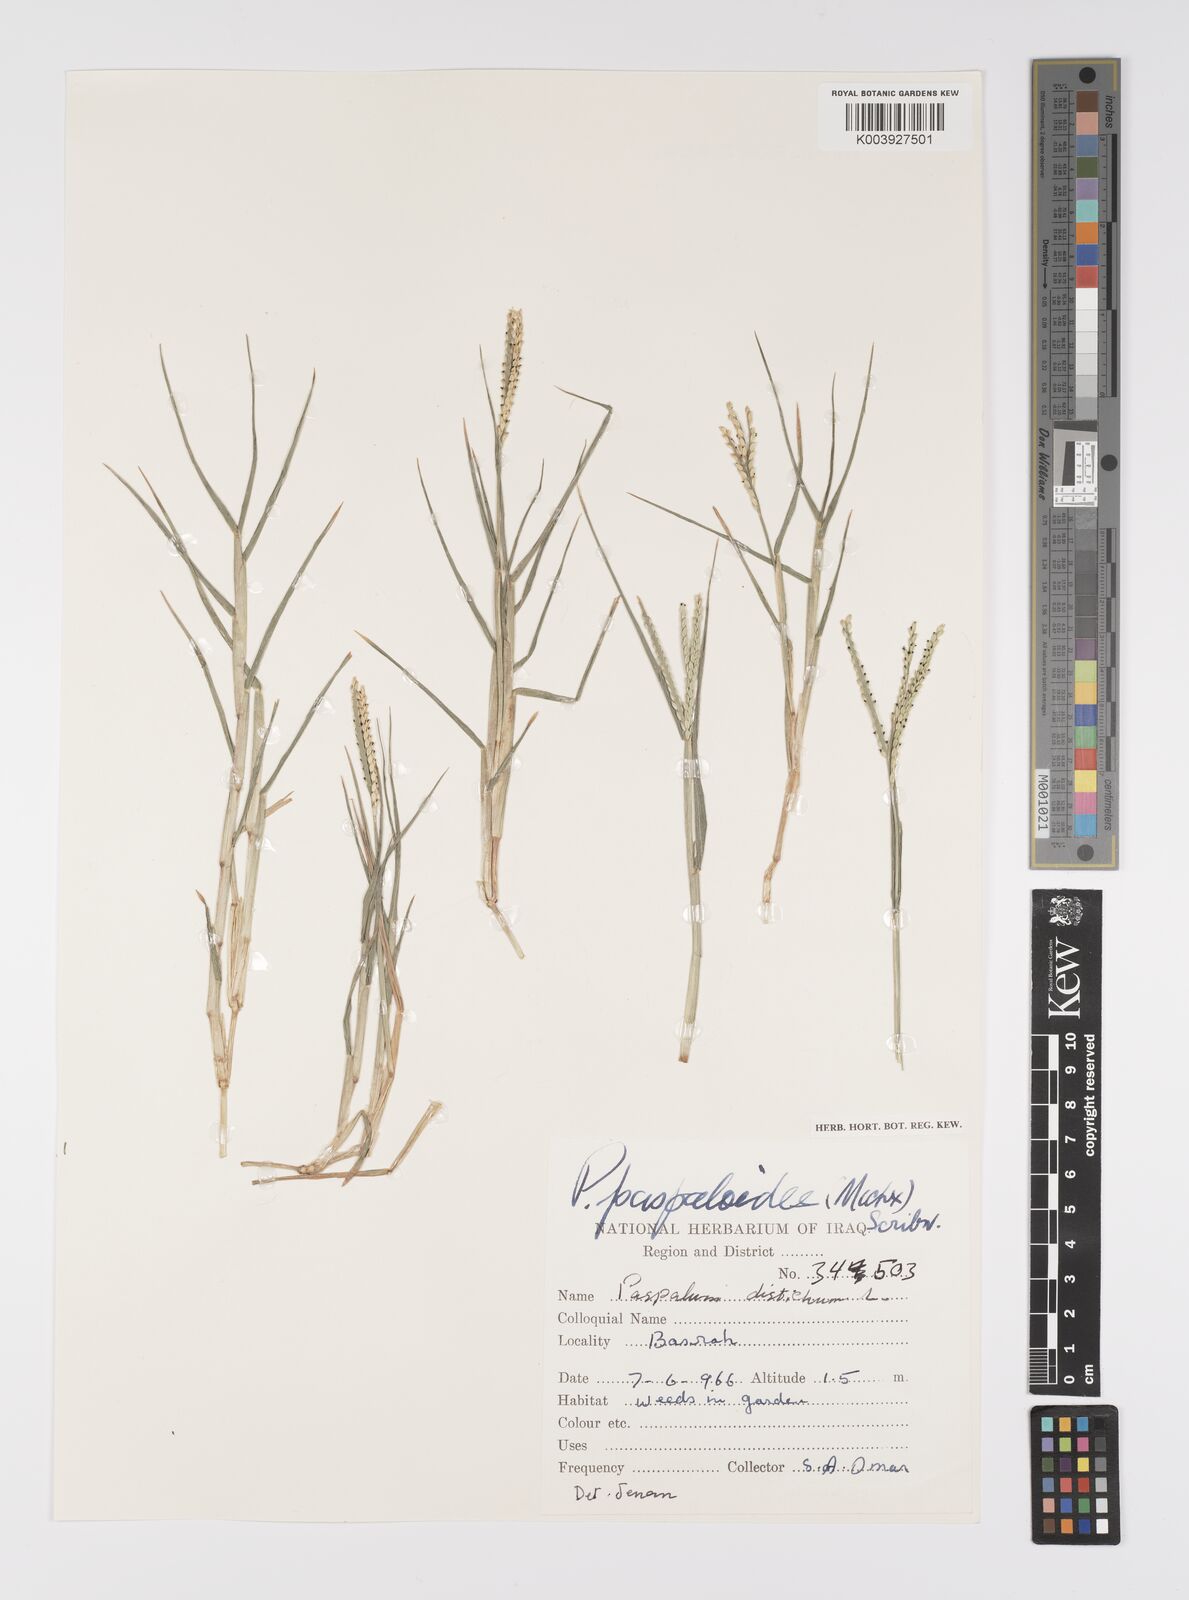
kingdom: Plantae
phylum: Tracheophyta
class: Liliopsida
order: Poales
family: Poaceae
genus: Paspalum
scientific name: Paspalum distichum
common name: Knotgrass
